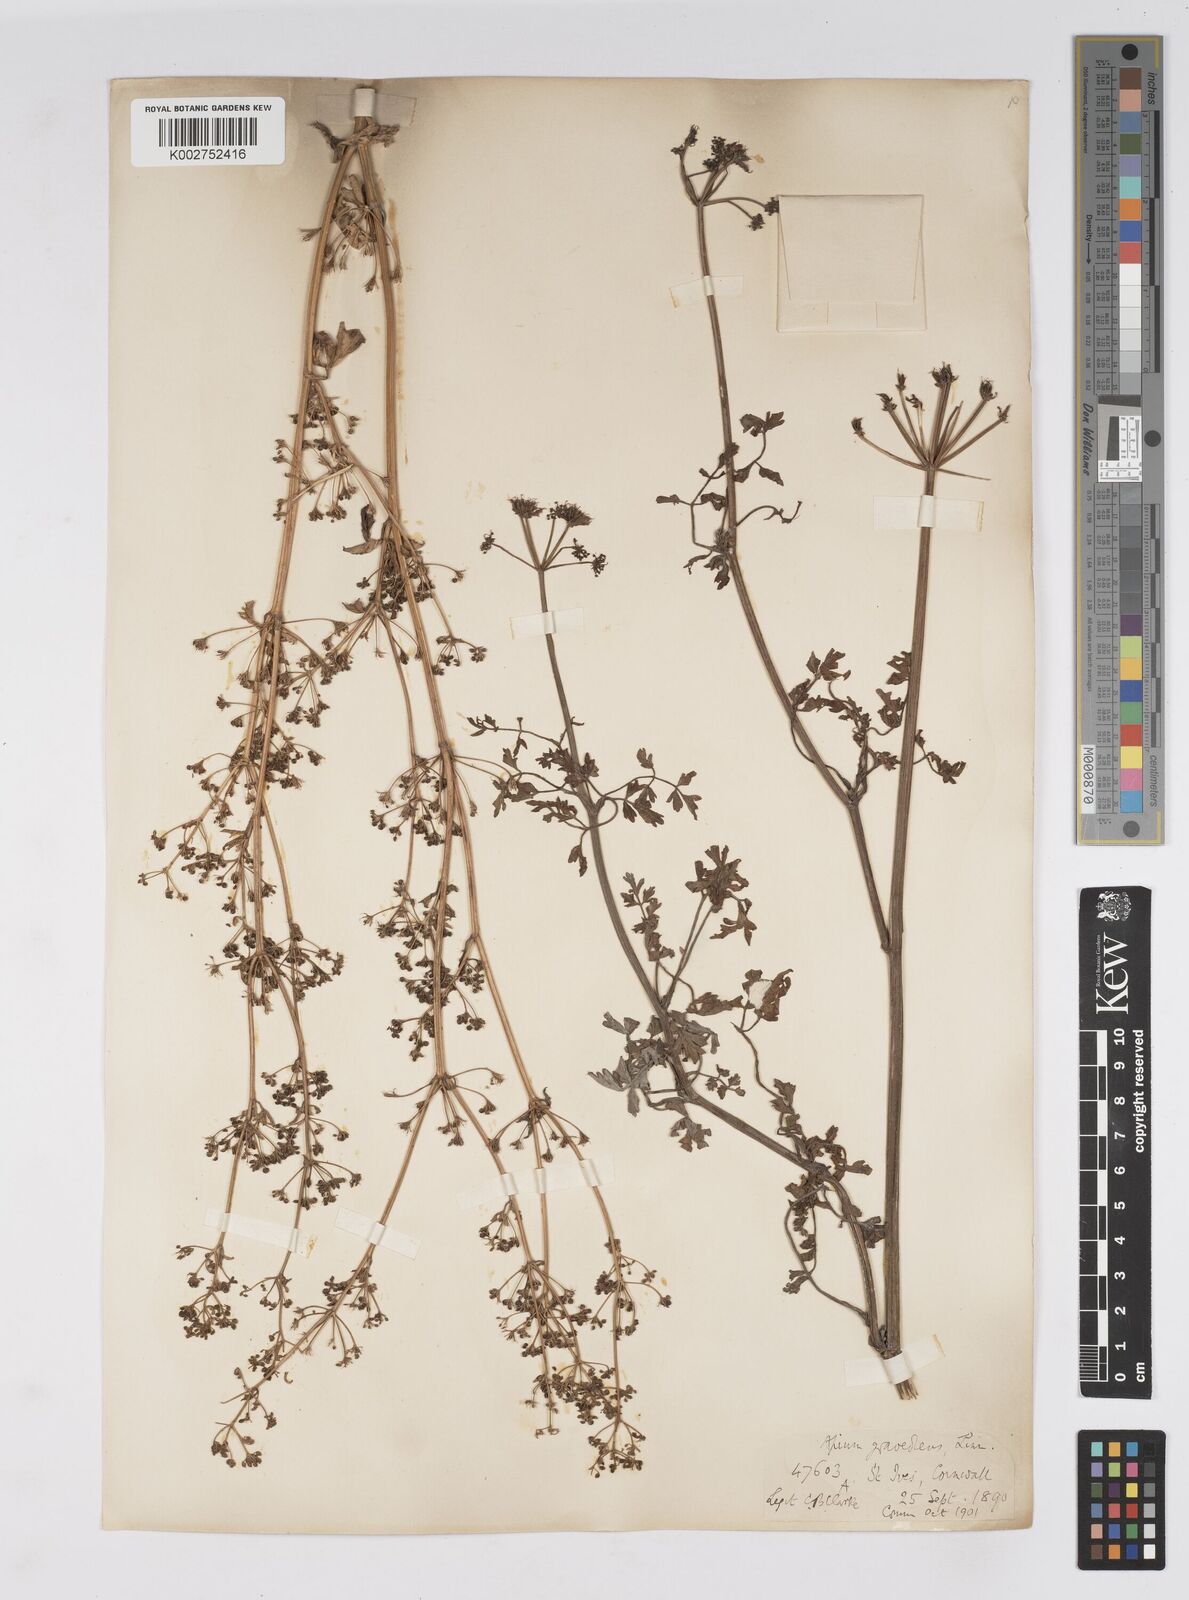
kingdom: Plantae
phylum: Tracheophyta
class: Magnoliopsida
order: Apiales
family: Apiaceae
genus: Apium
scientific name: Apium graveolens
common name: Wild celery
